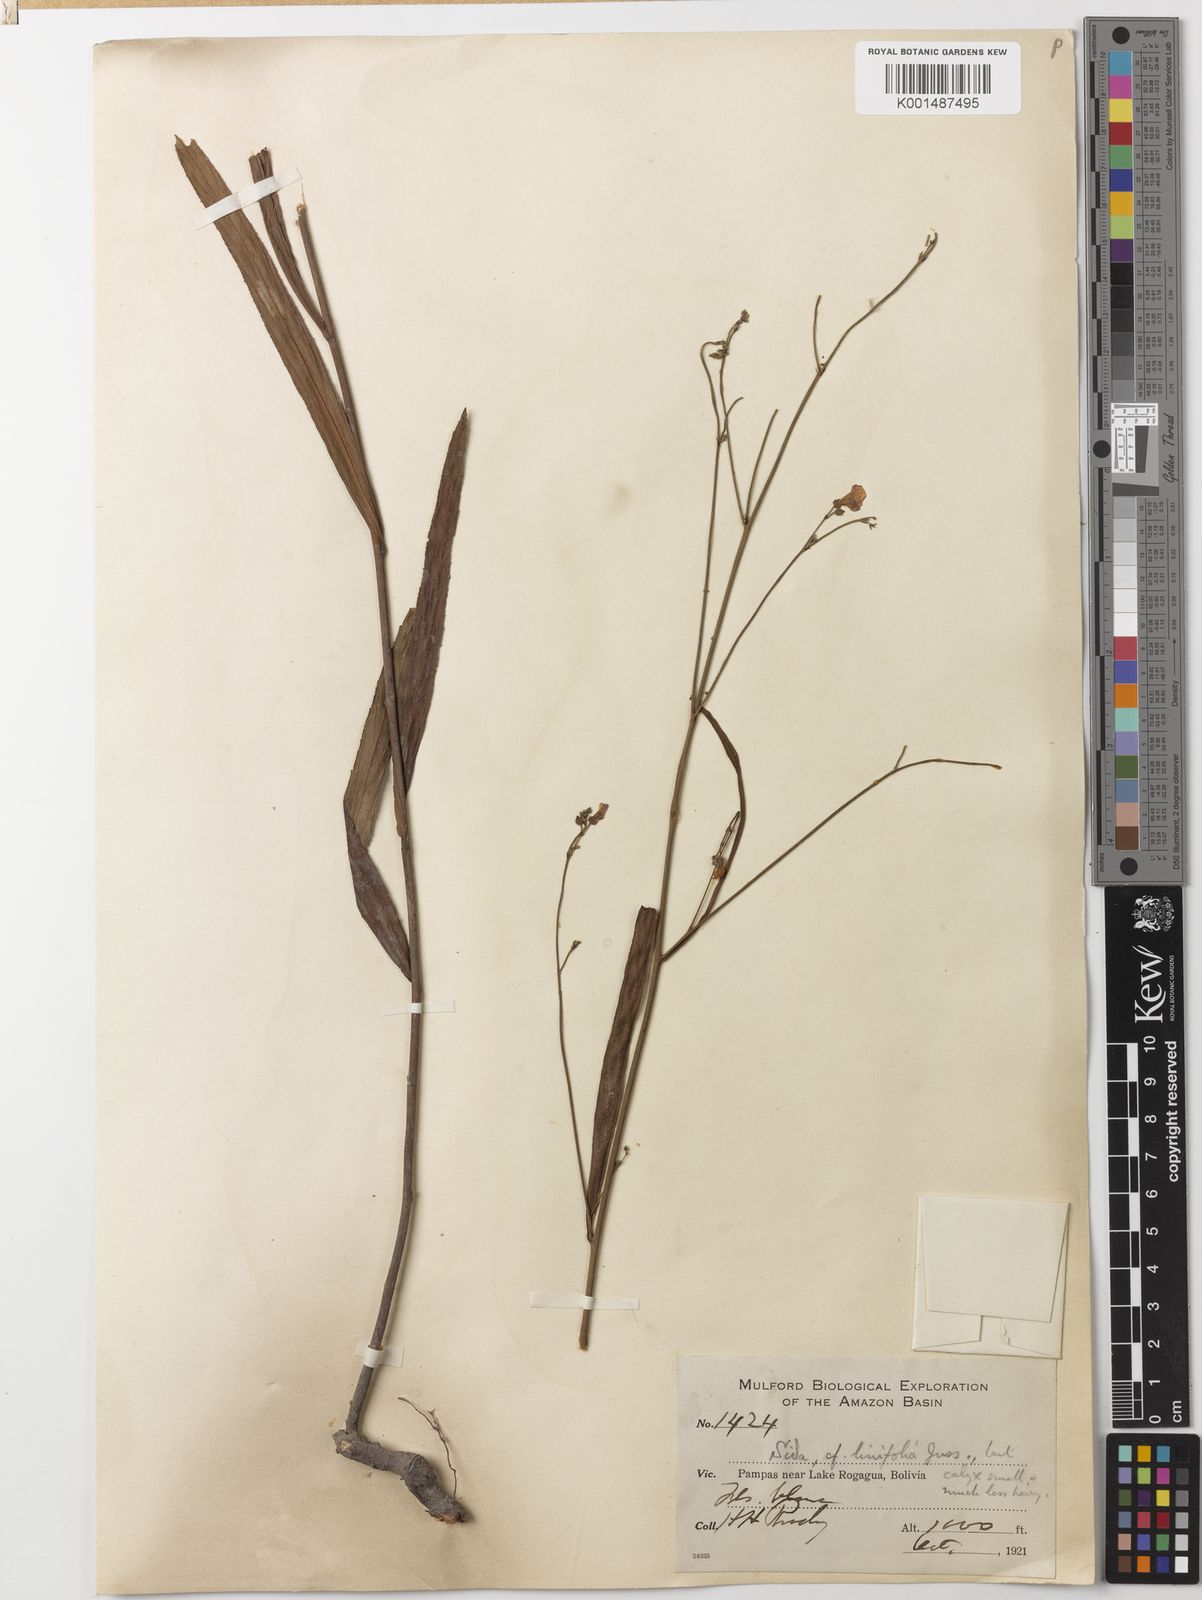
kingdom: Plantae
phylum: Tracheophyta
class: Magnoliopsida
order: Malvales
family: Malvaceae
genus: Sida
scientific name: Sida linifolia
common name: Flaxleaf fanpetals
